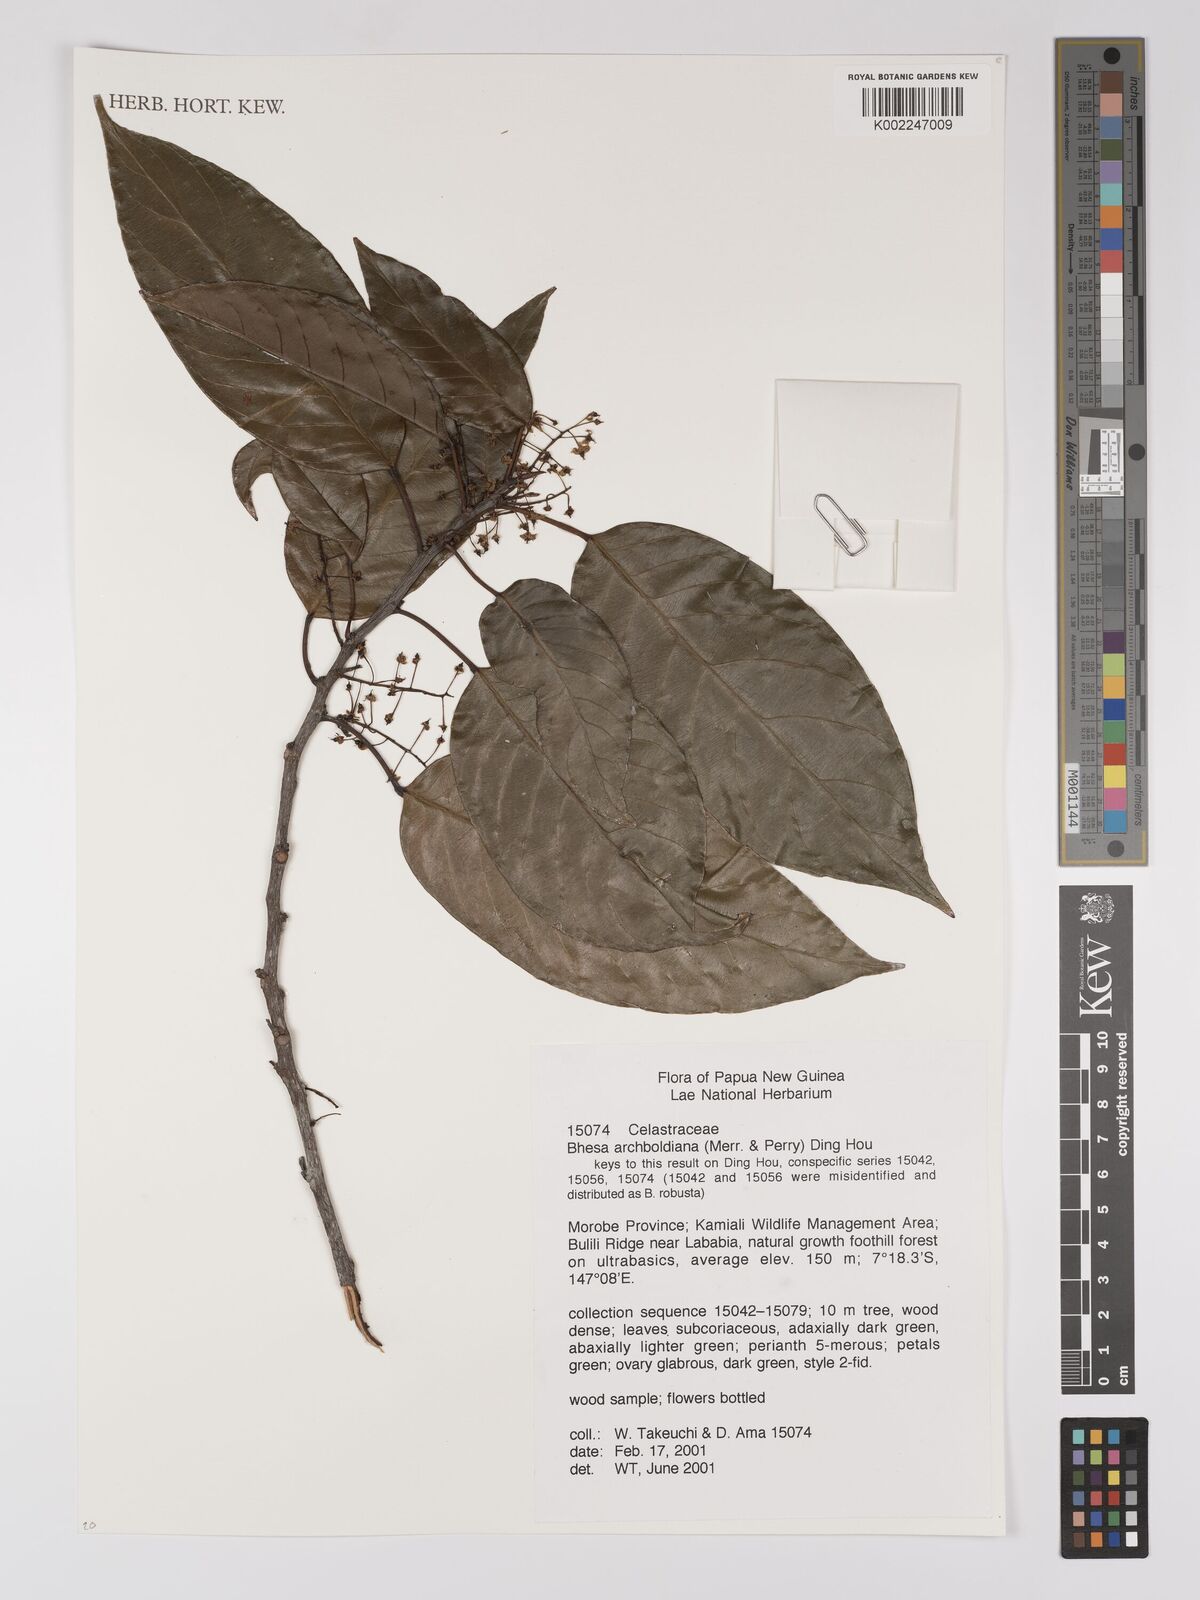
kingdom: Plantae
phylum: Tracheophyta
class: Magnoliopsida
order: Malpighiales
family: Centroplacaceae
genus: Bhesa
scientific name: Bhesa archboldiana
